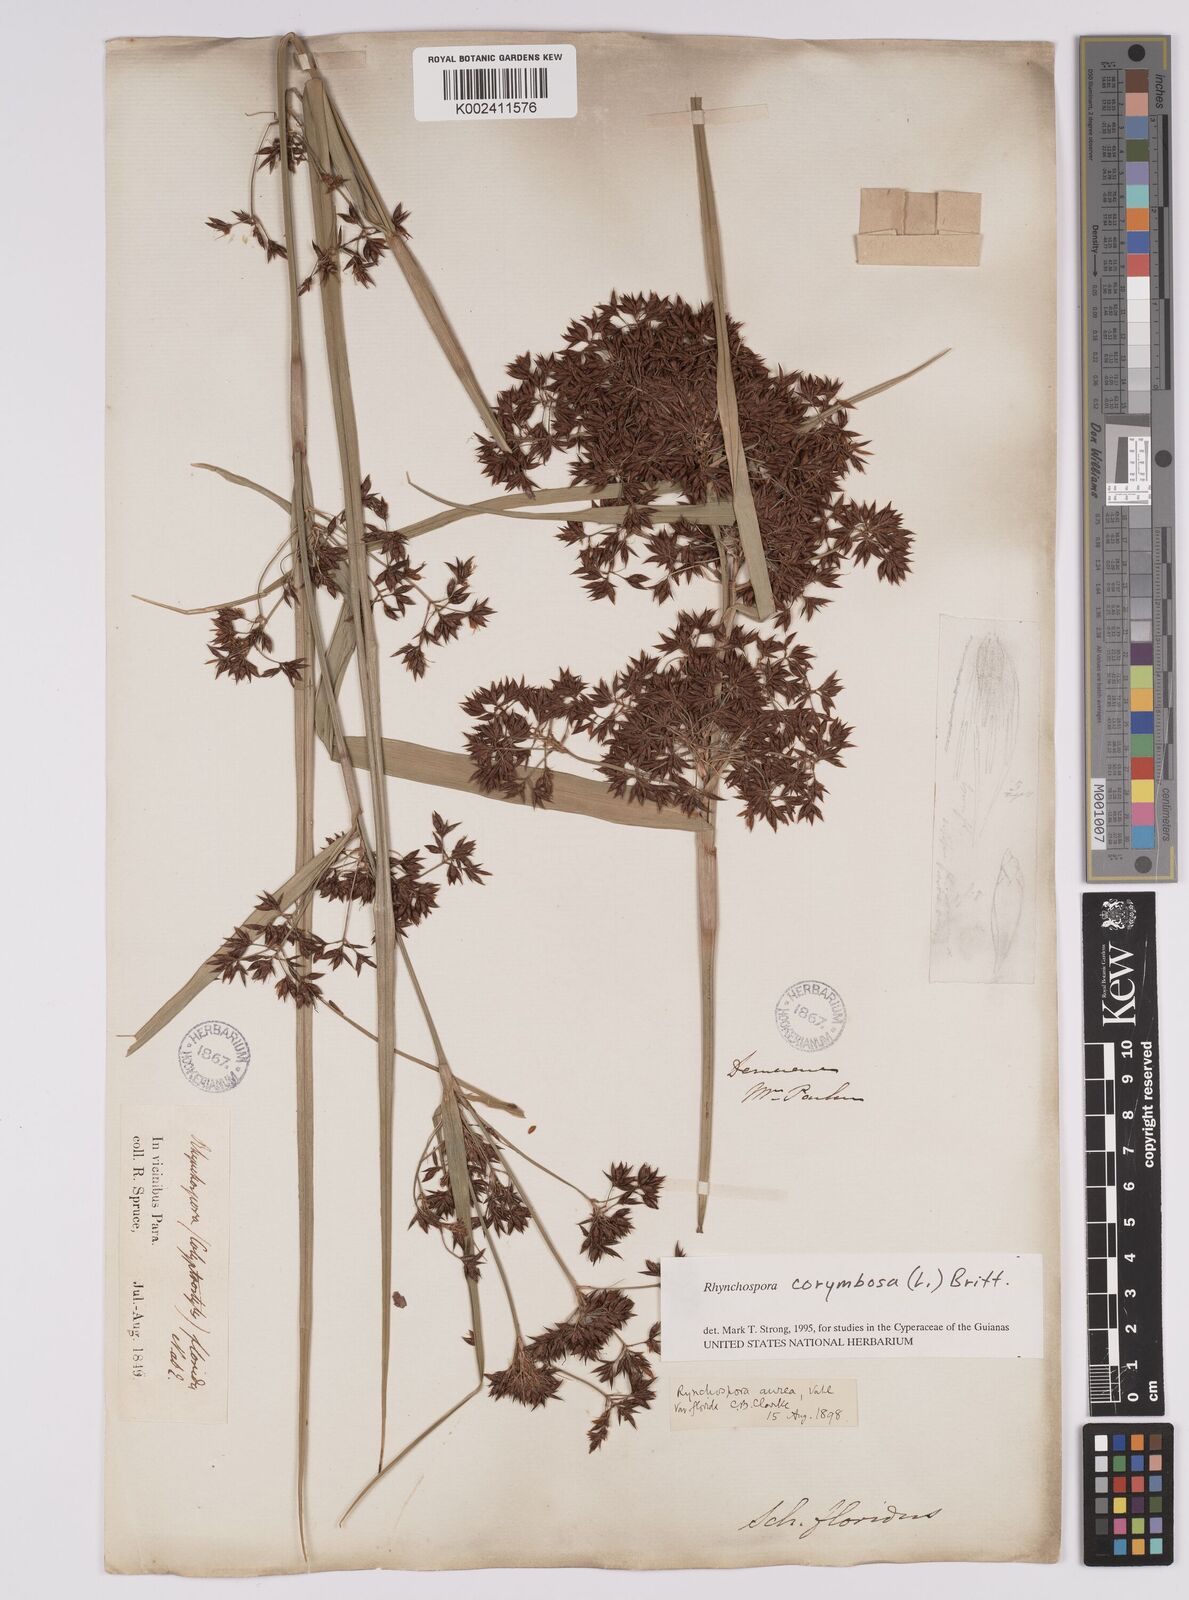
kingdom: Plantae
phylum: Tracheophyta
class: Liliopsida
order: Poales
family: Cyperaceae
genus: Rhynchospora
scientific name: Rhynchospora corymbosa
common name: Golden beak sedge
